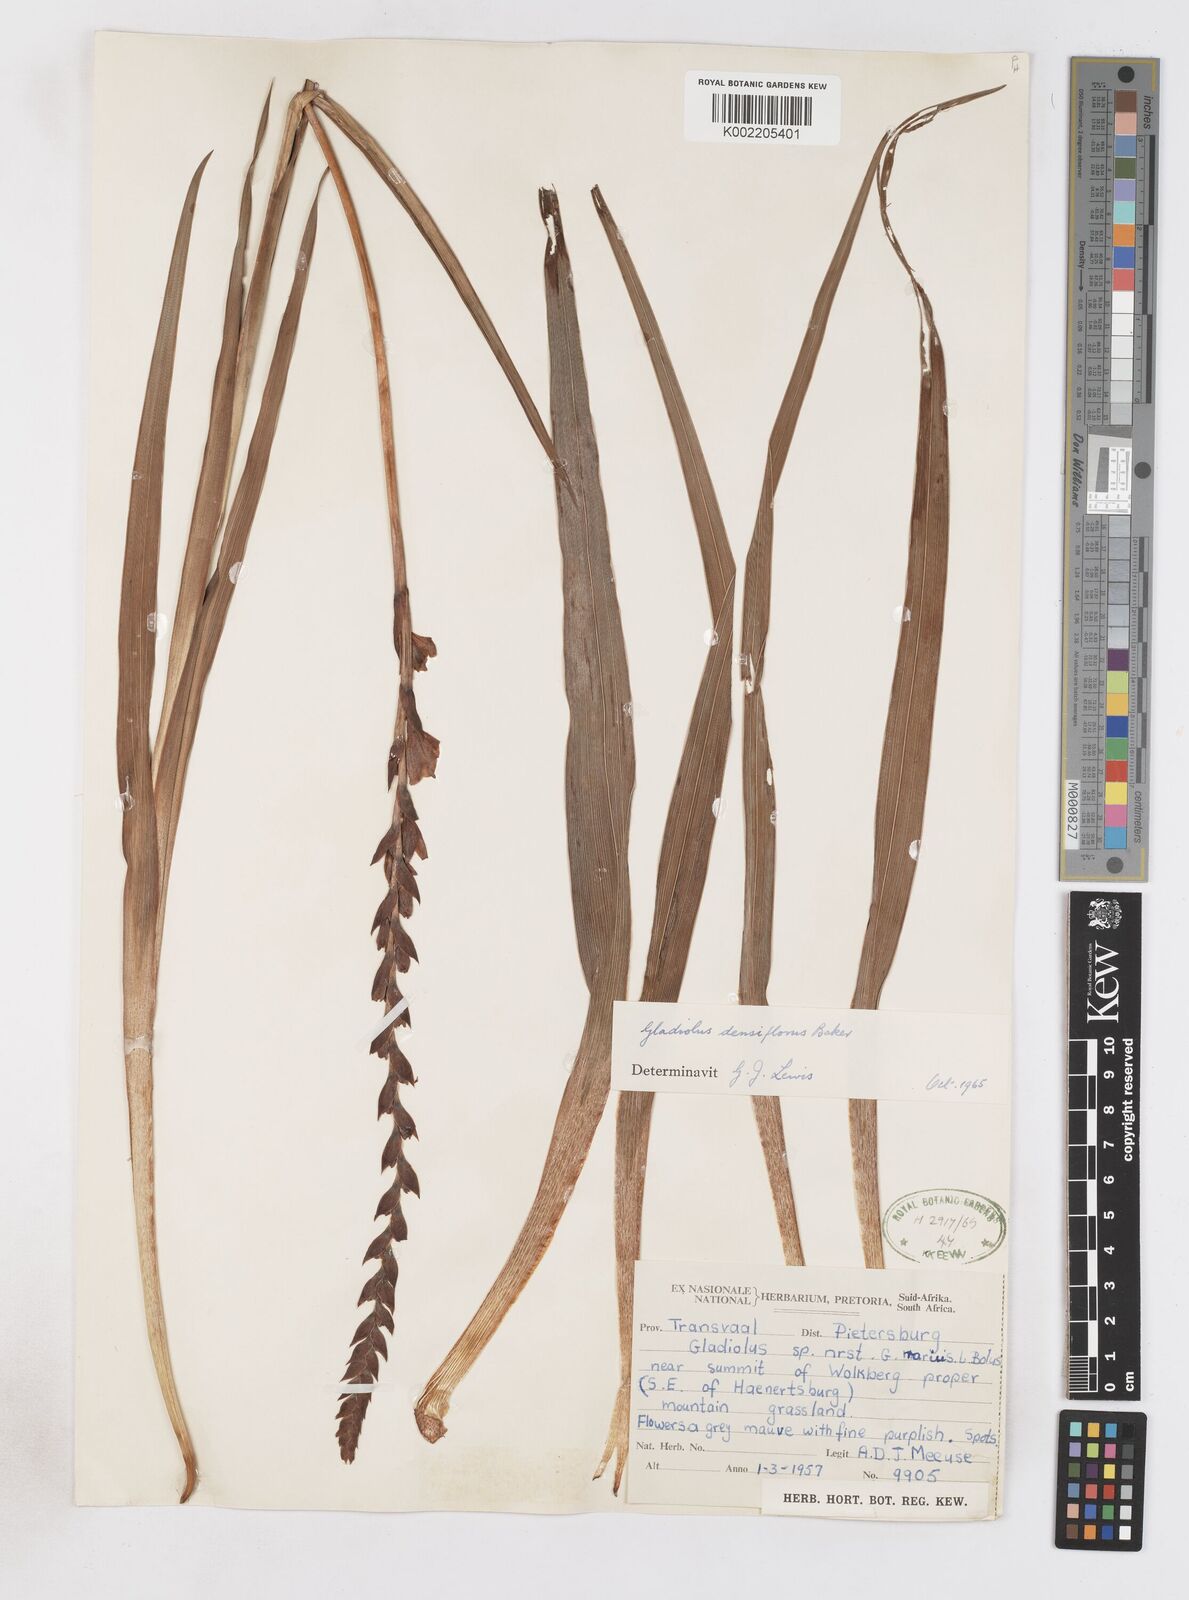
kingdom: Plantae
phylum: Tracheophyta
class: Liliopsida
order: Asparagales
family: Iridaceae
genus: Gladiolus
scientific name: Gladiolus densiflorus
